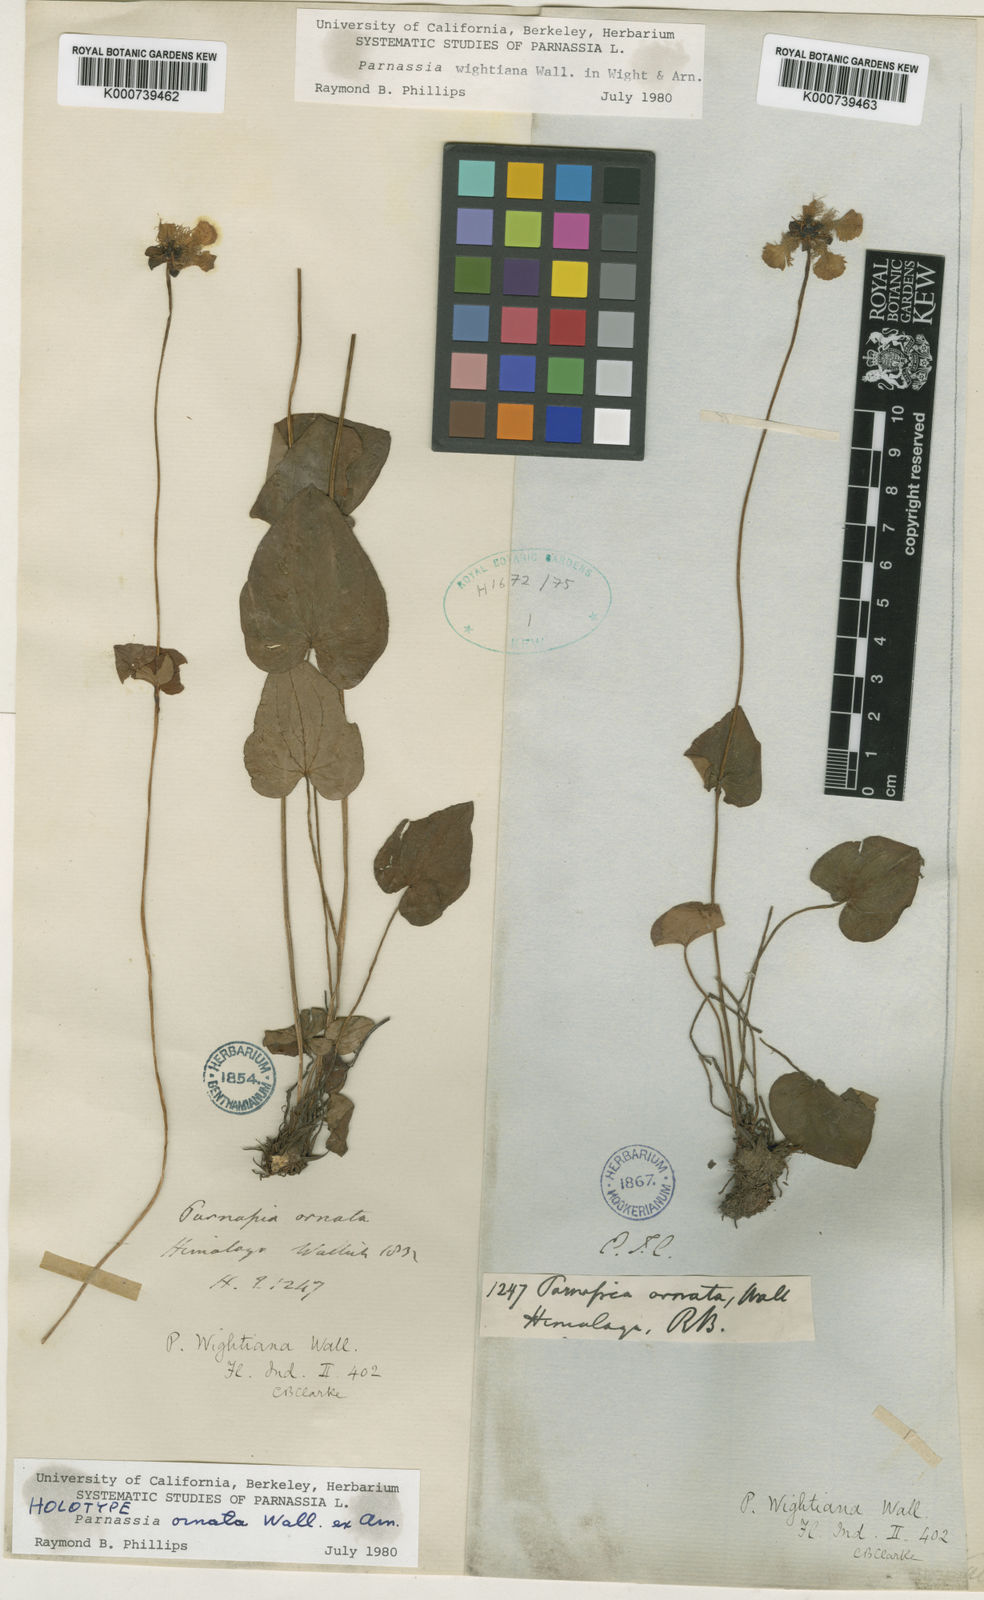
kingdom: Plantae
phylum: Tracheophyta
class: Magnoliopsida
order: Celastrales
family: Parnassiaceae
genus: Parnassia
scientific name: Parnassia
